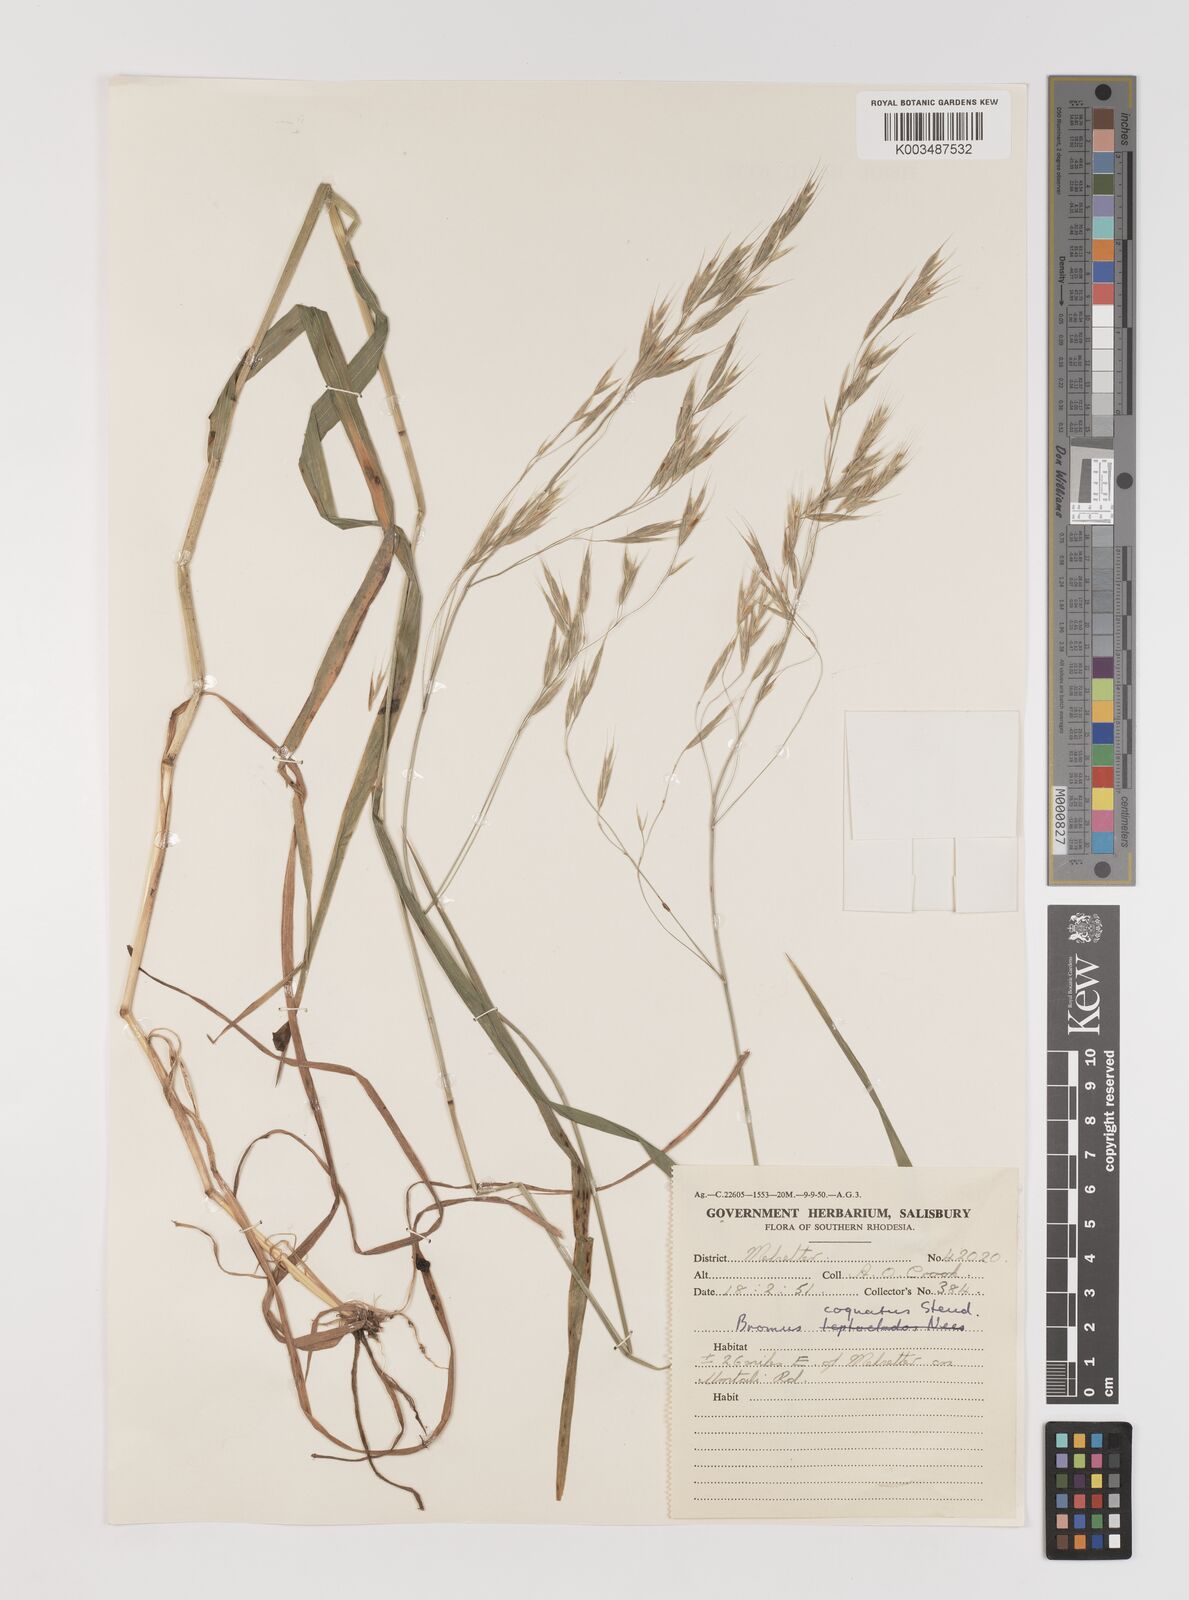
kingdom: Plantae
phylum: Tracheophyta
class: Liliopsida
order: Poales
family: Poaceae
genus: Bromus
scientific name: Bromus leptoclados
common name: Mountain bromegrass
